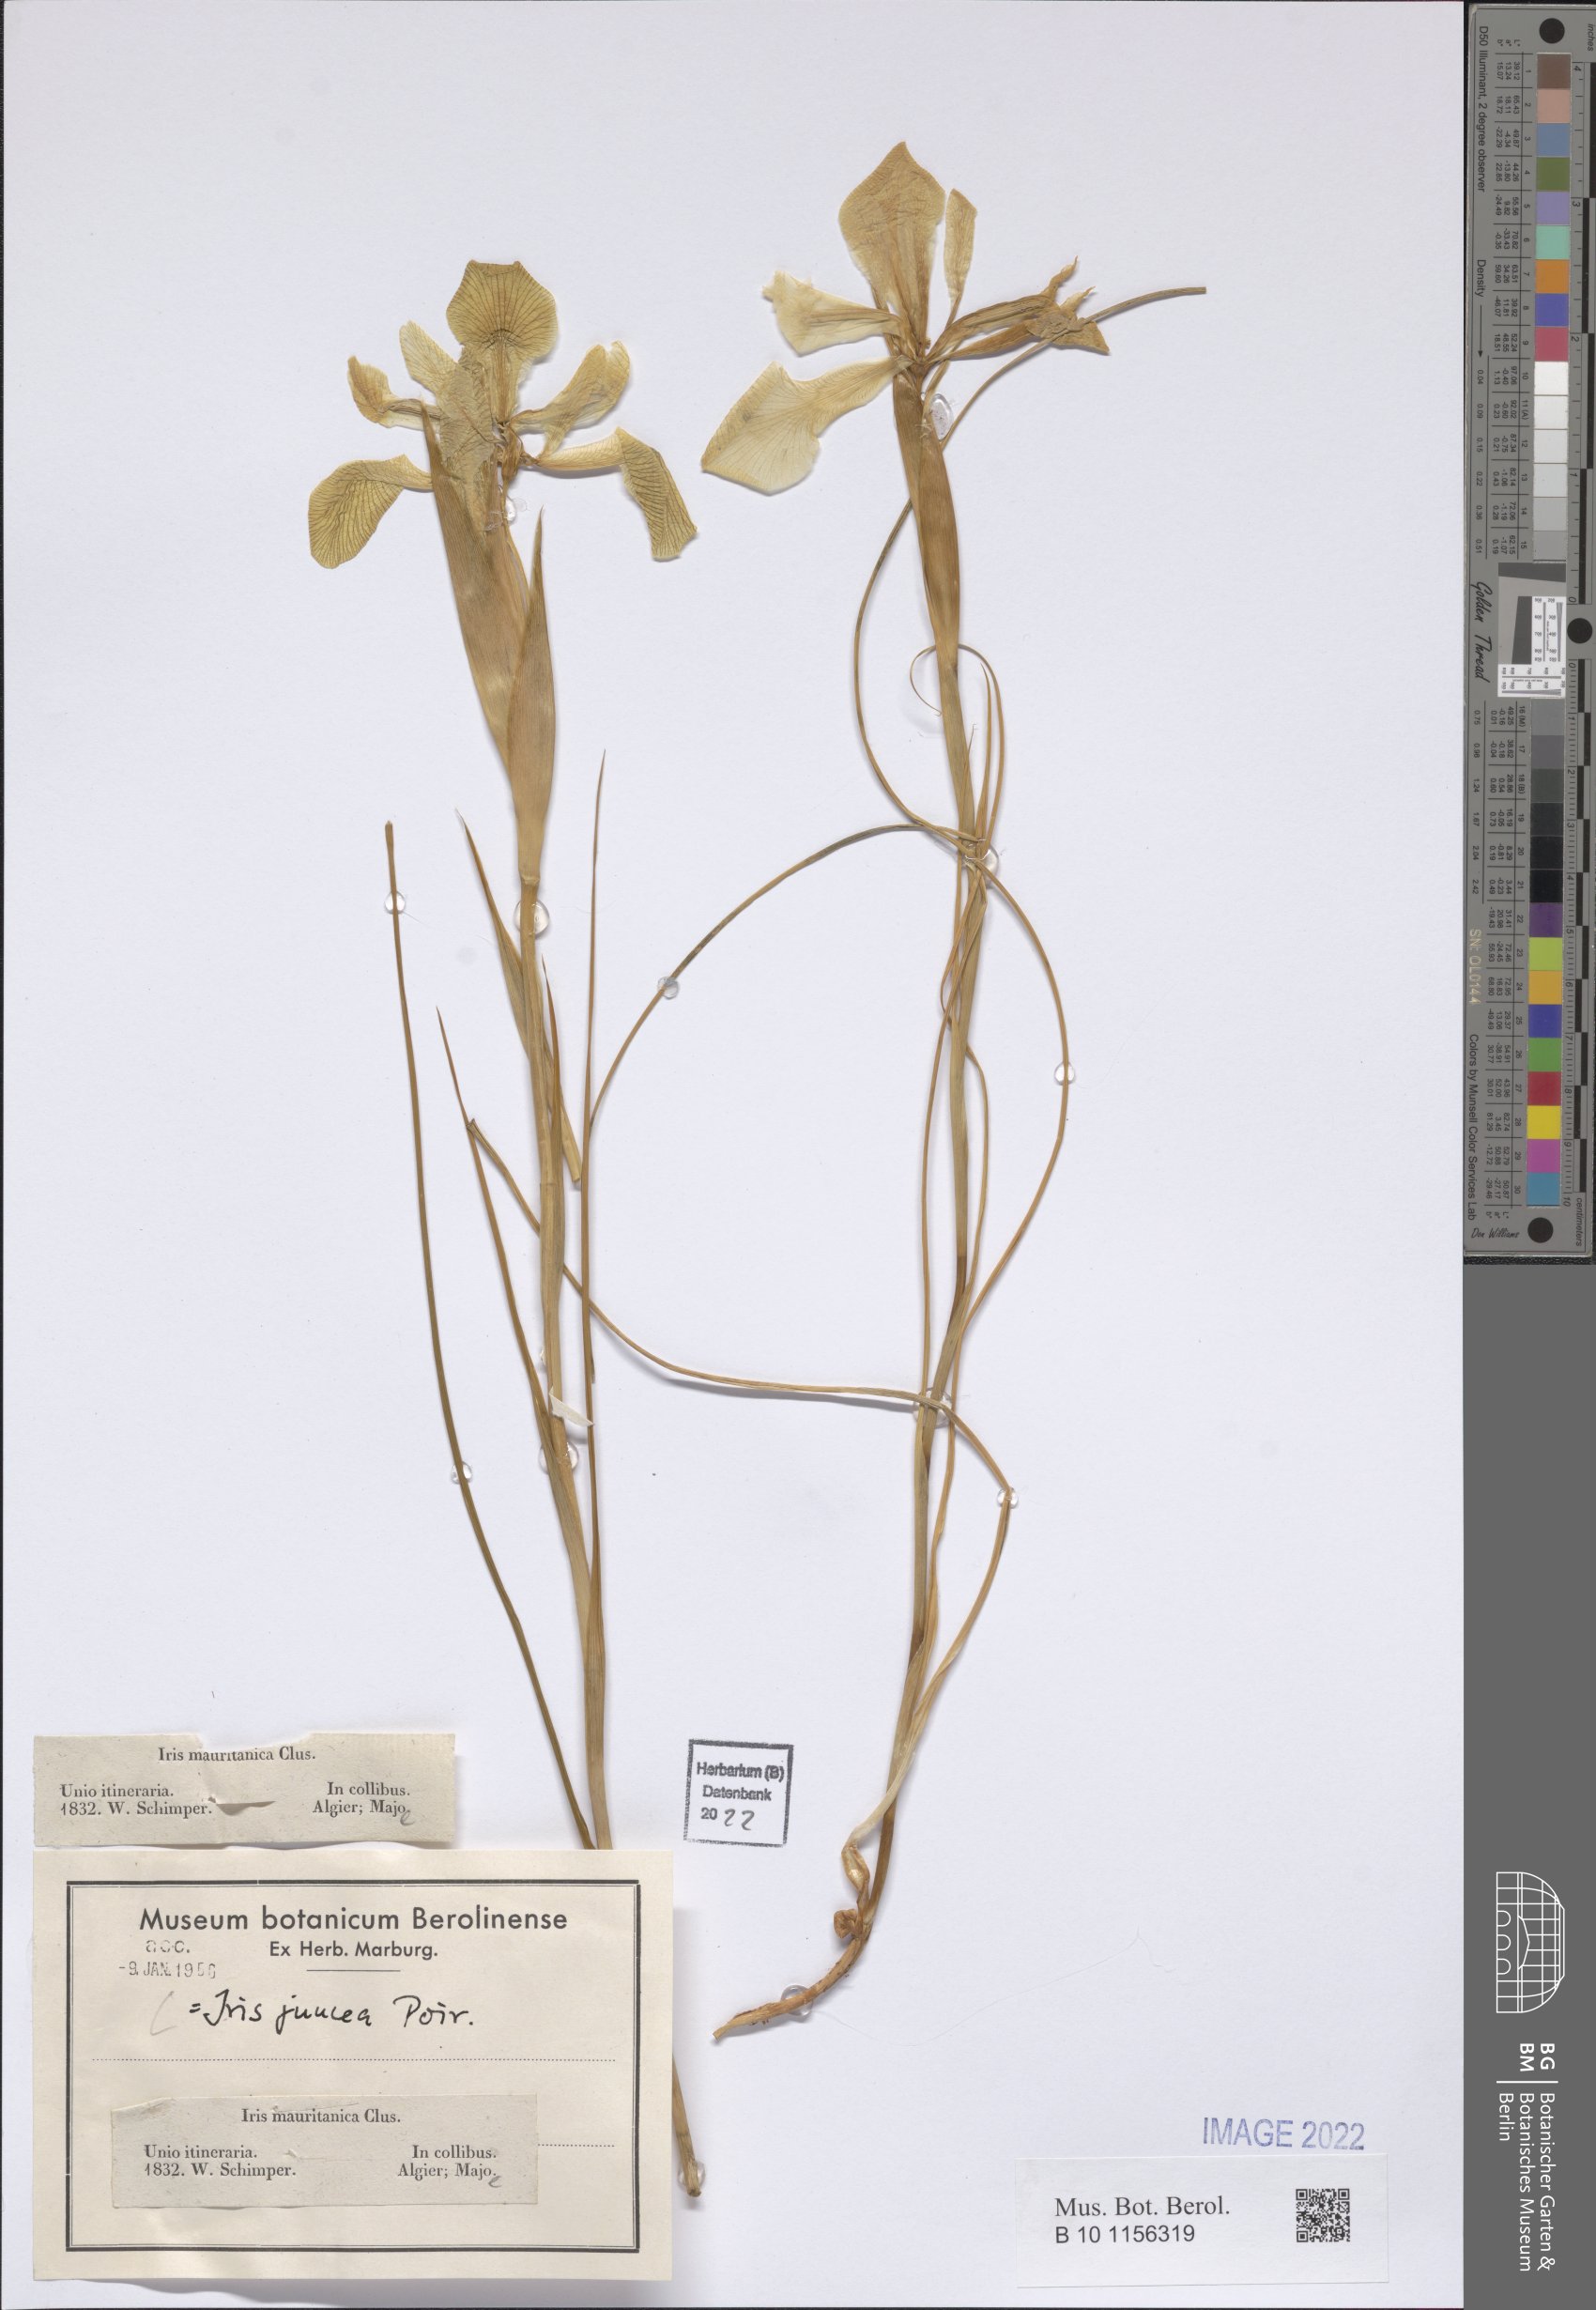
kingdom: Plantae
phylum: Tracheophyta
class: Liliopsida
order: Asparagales
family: Iridaceae
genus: Iris
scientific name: Iris juncea
